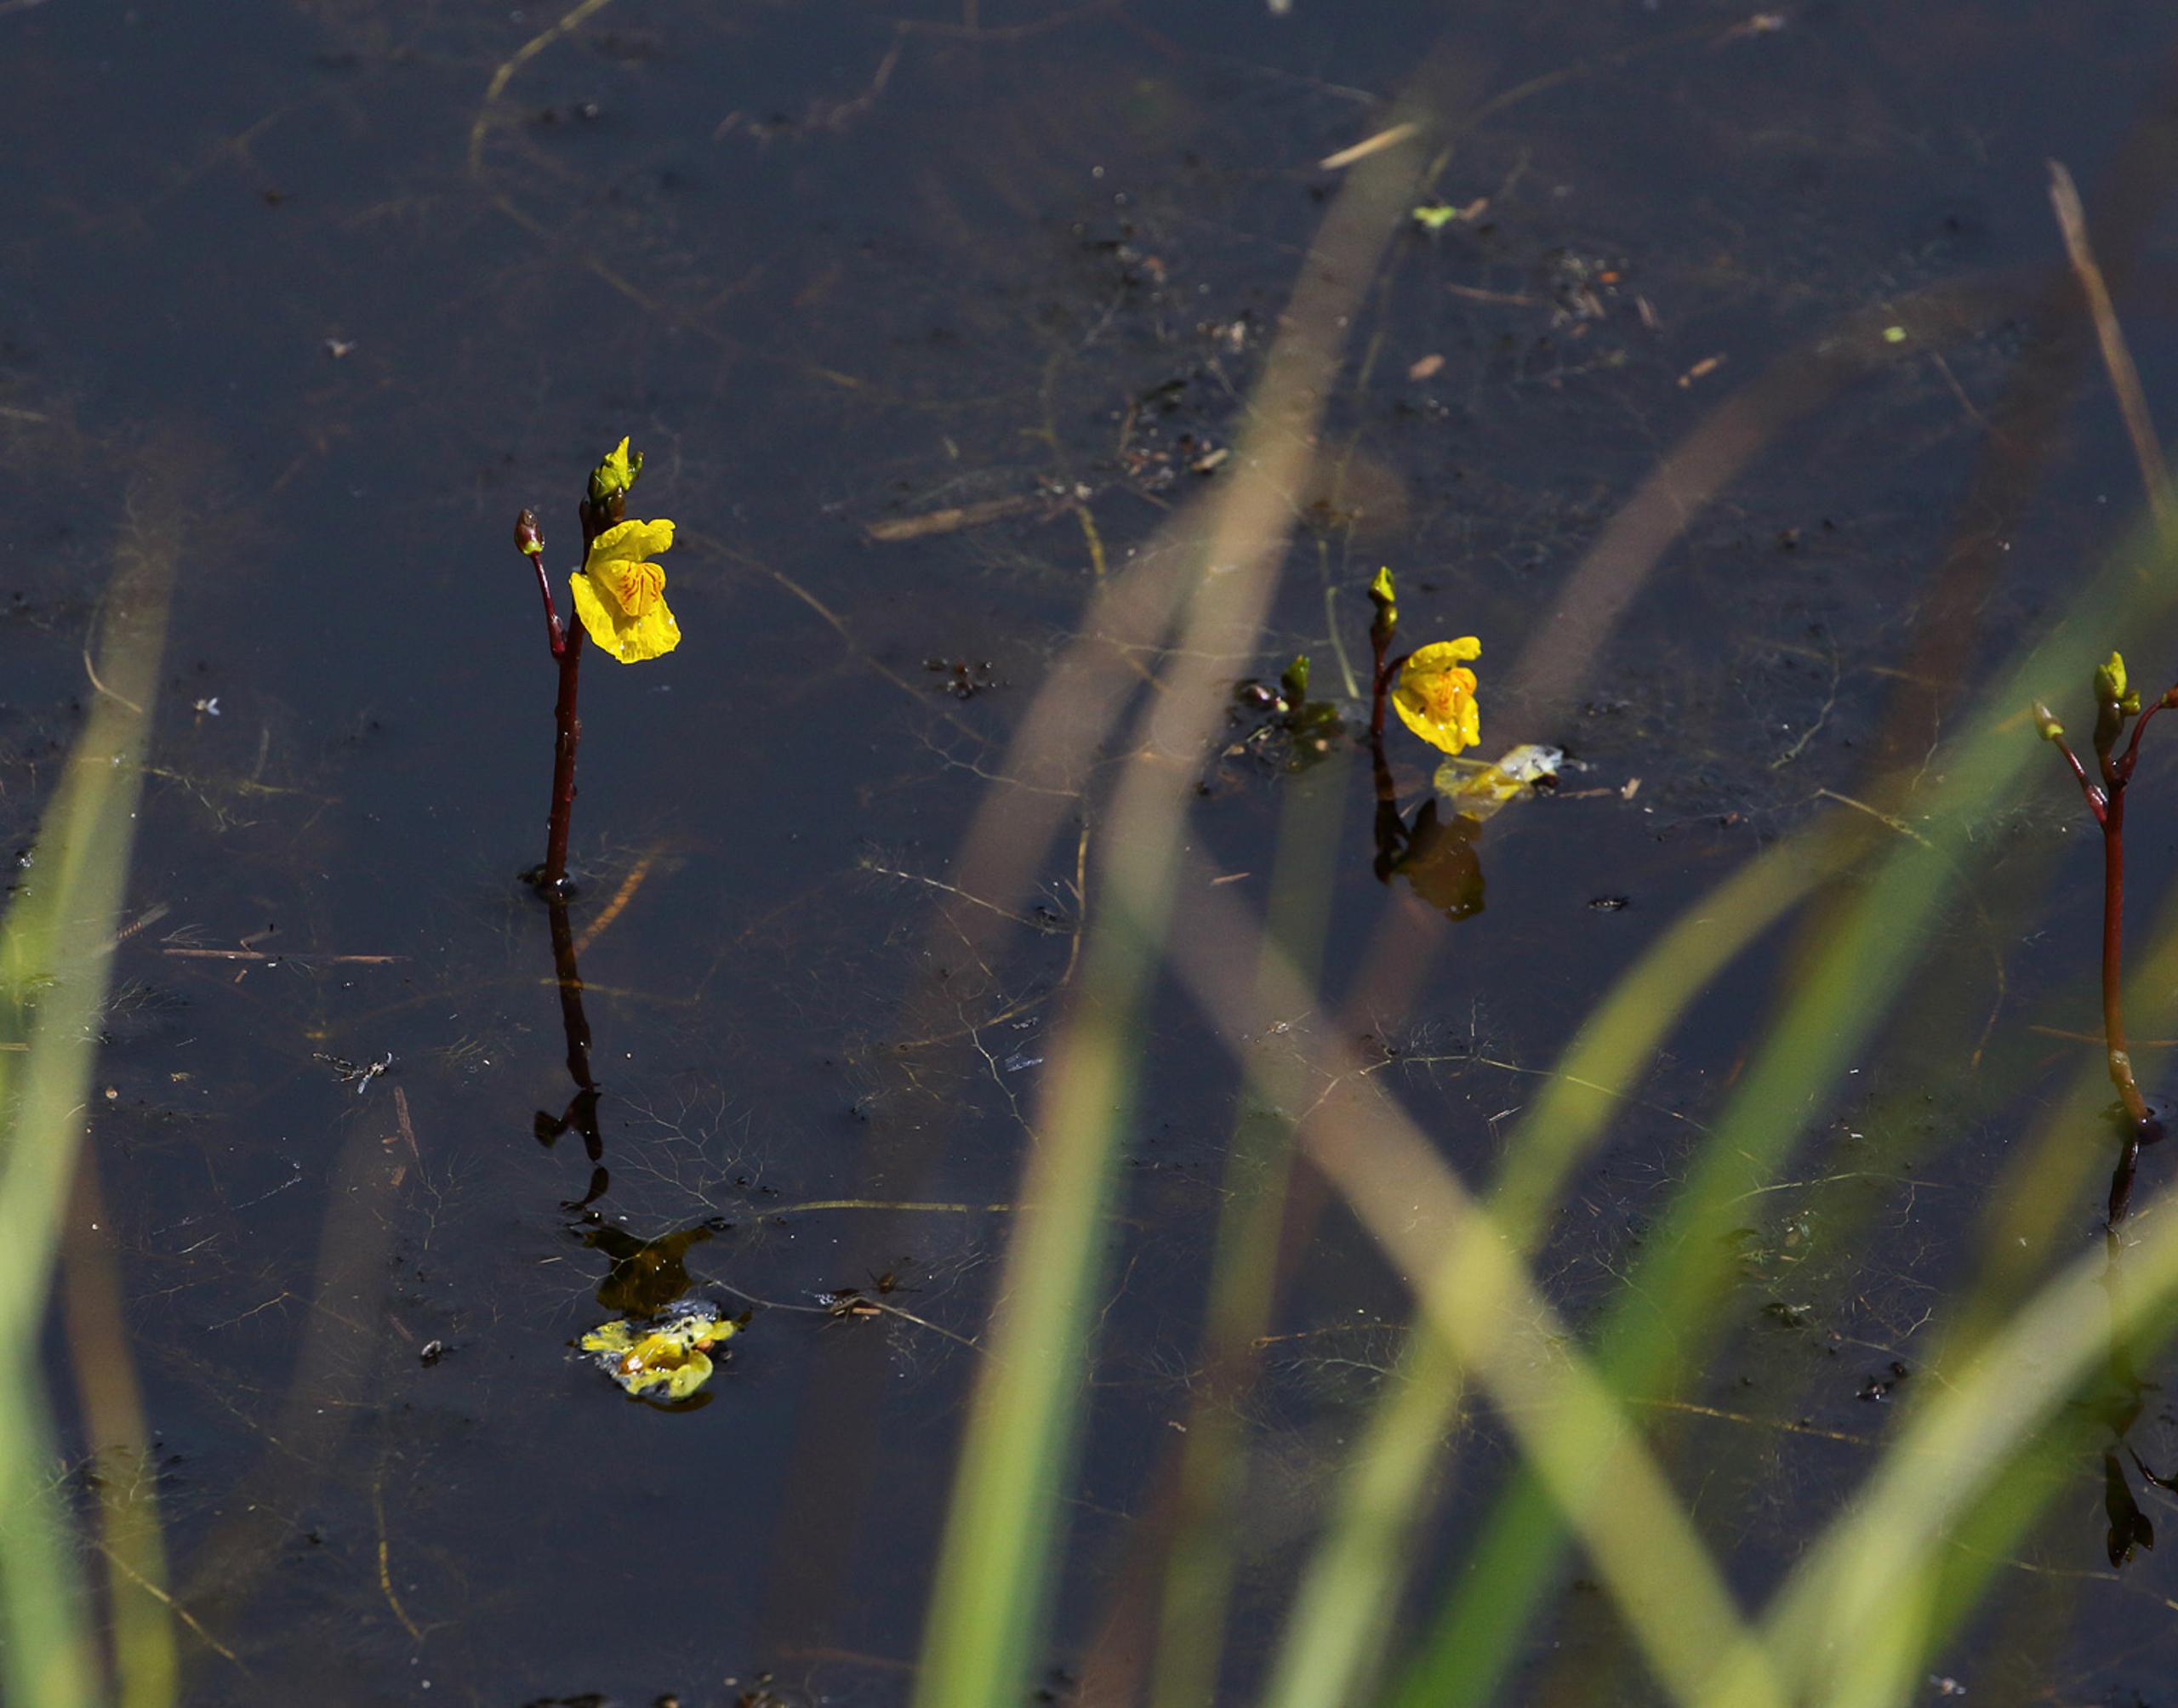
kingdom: Plantae
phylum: Tracheophyta
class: Magnoliopsida
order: Lamiales
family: Lentibulariaceae
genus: Utricularia
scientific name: Utricularia australis
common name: Slank blærerod
